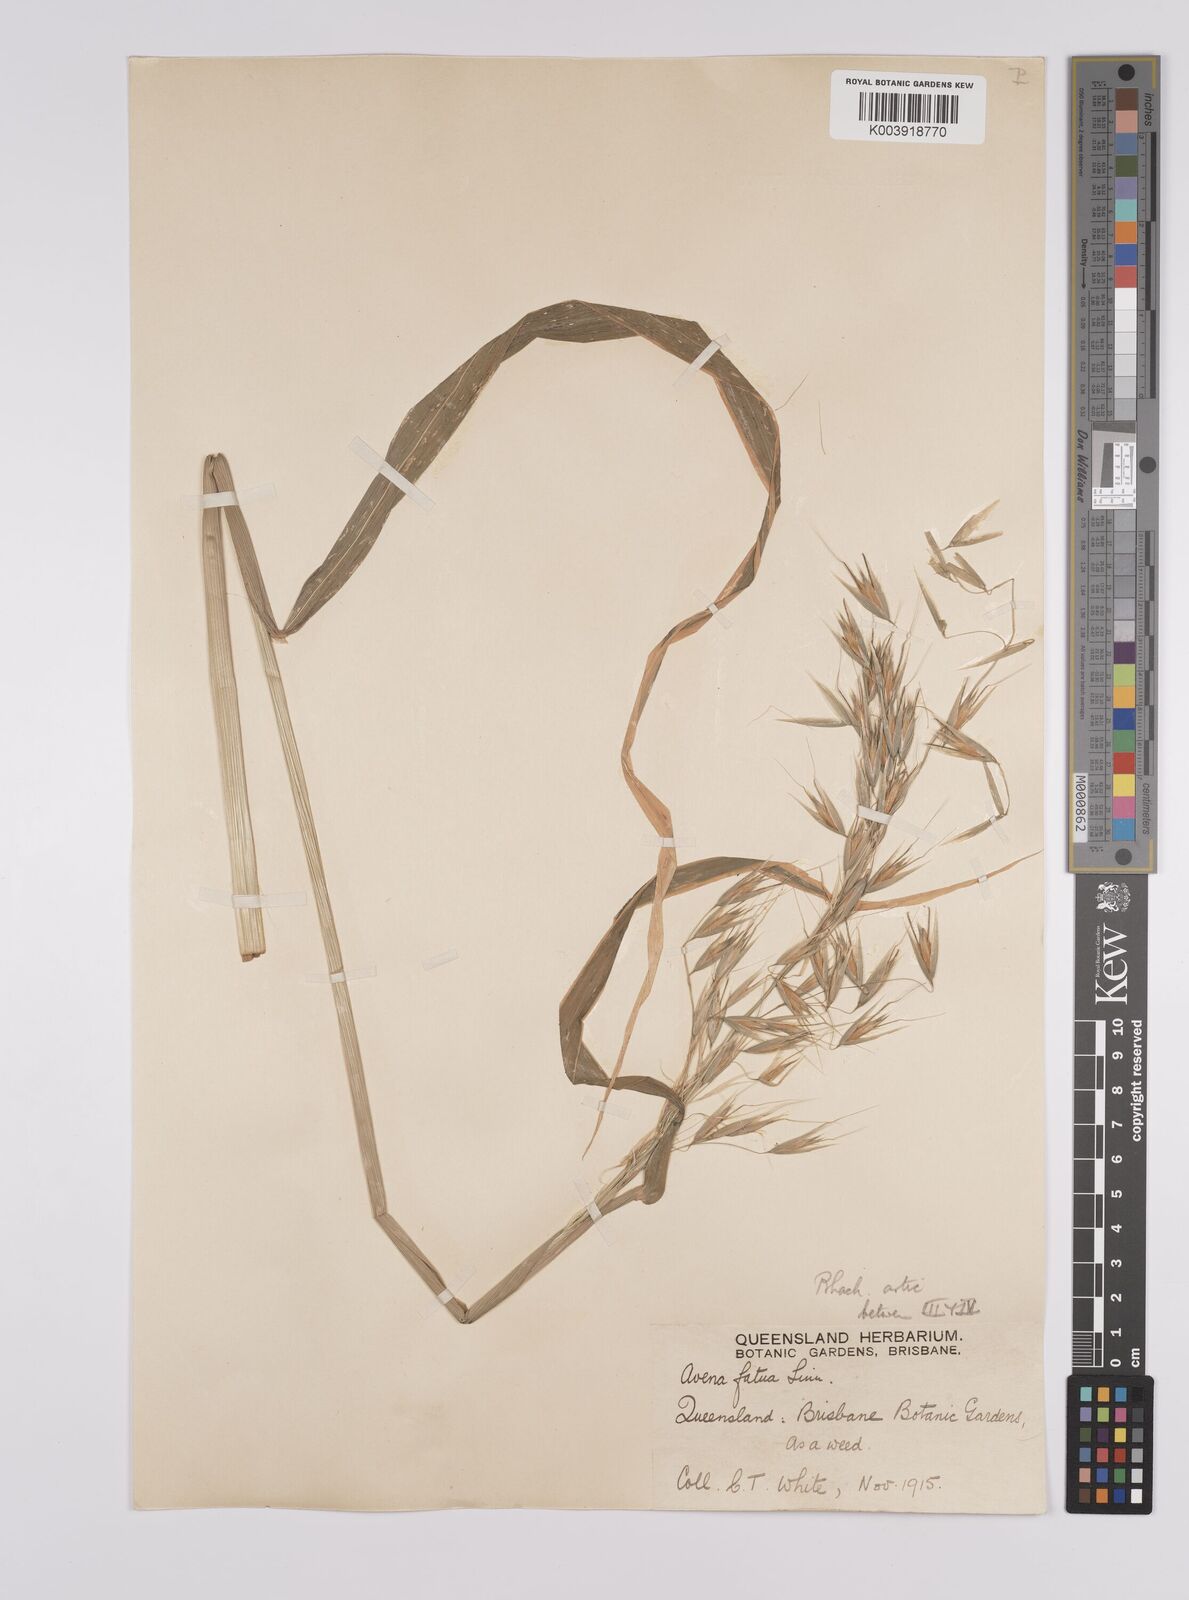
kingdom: Plantae
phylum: Tracheophyta
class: Liliopsida
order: Poales
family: Poaceae
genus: Avena
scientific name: Avena fatua
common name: Wild oat
